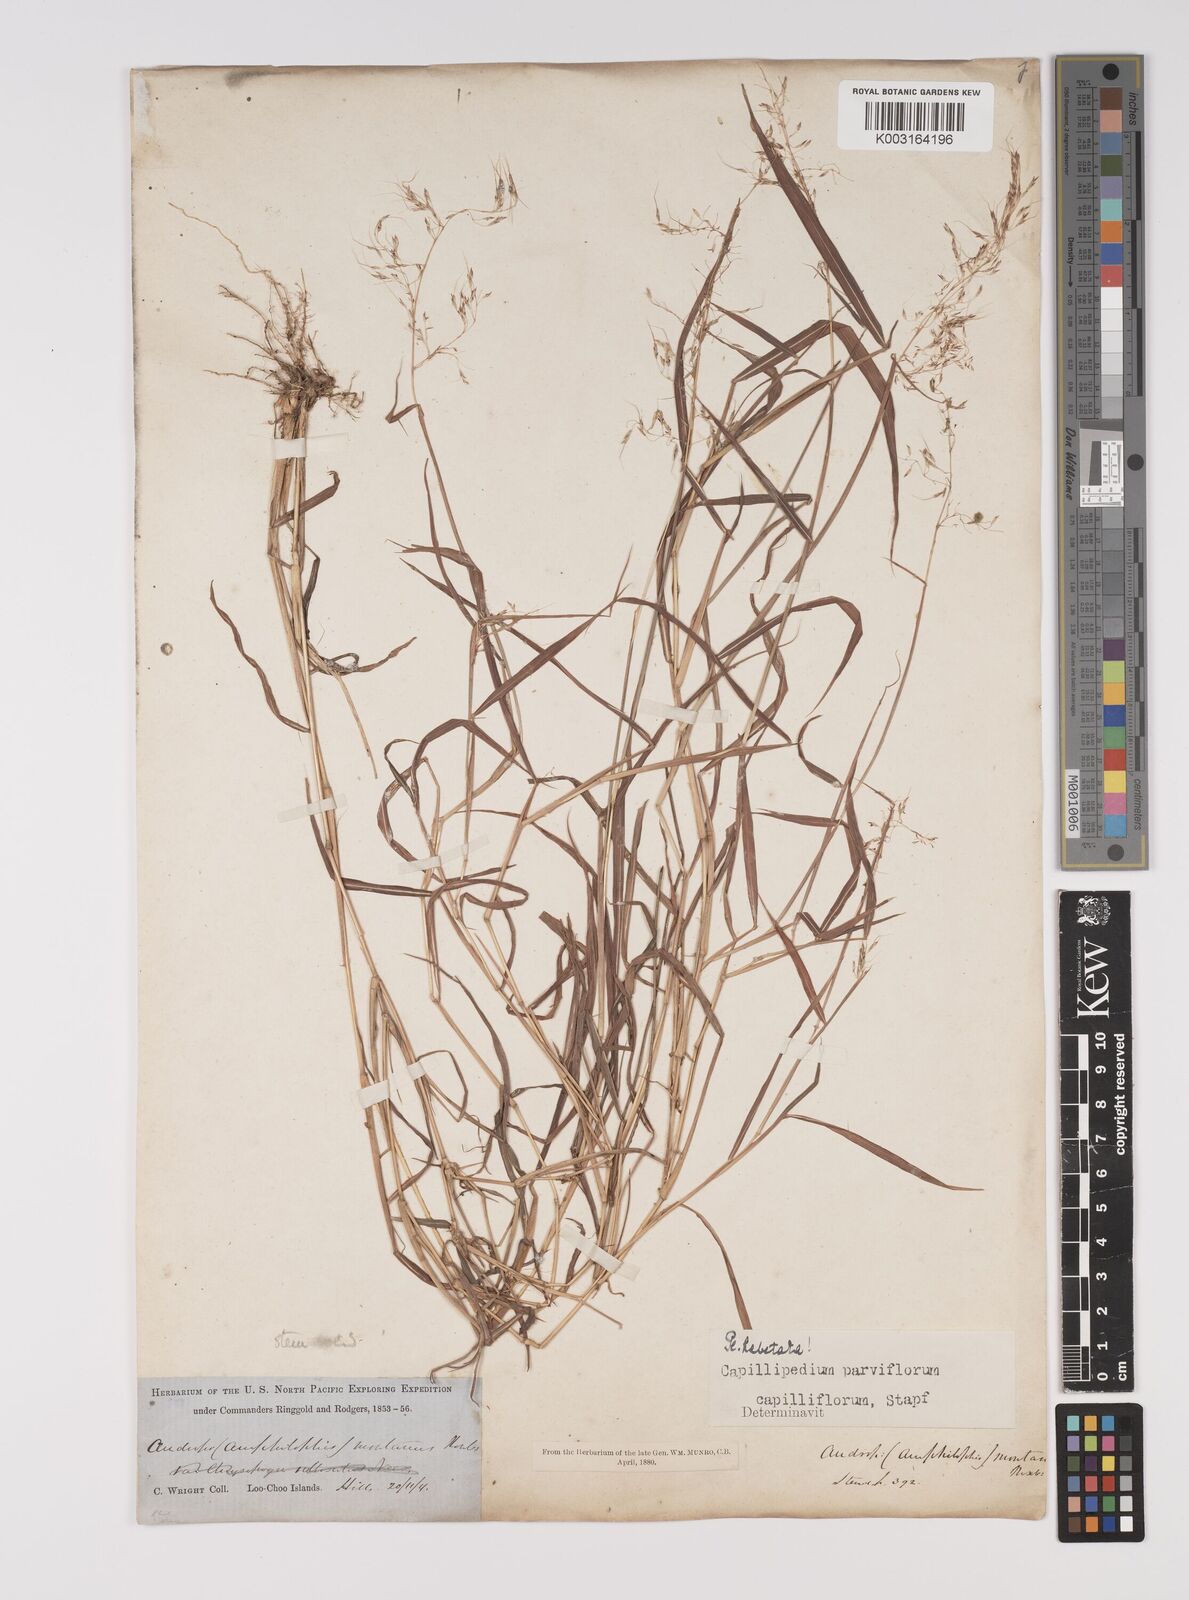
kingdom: Plantae
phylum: Tracheophyta
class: Liliopsida
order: Poales
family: Poaceae
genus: Capillipedium
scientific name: Capillipedium parviflorum
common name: Golden-beard
